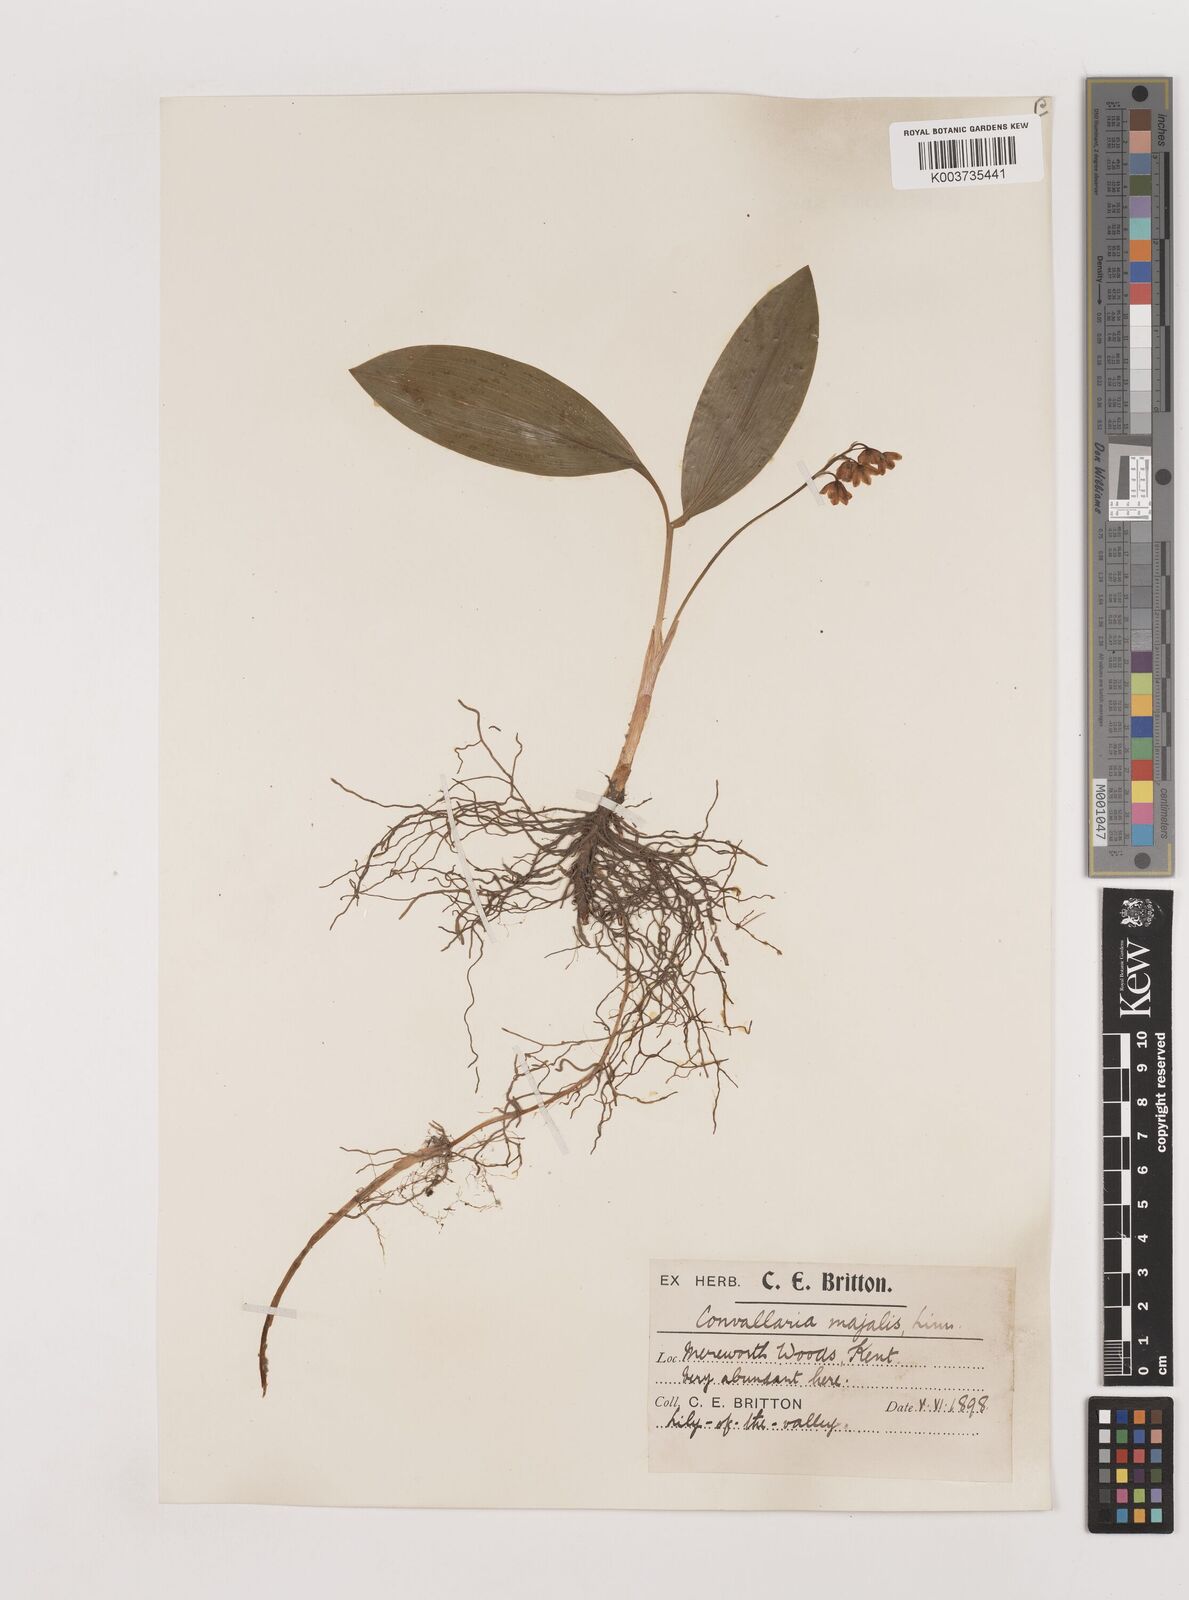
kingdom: Plantae
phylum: Tracheophyta
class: Liliopsida
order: Asparagales
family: Asparagaceae
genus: Convallaria
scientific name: Convallaria majalis
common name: Lily-of-the-valley
